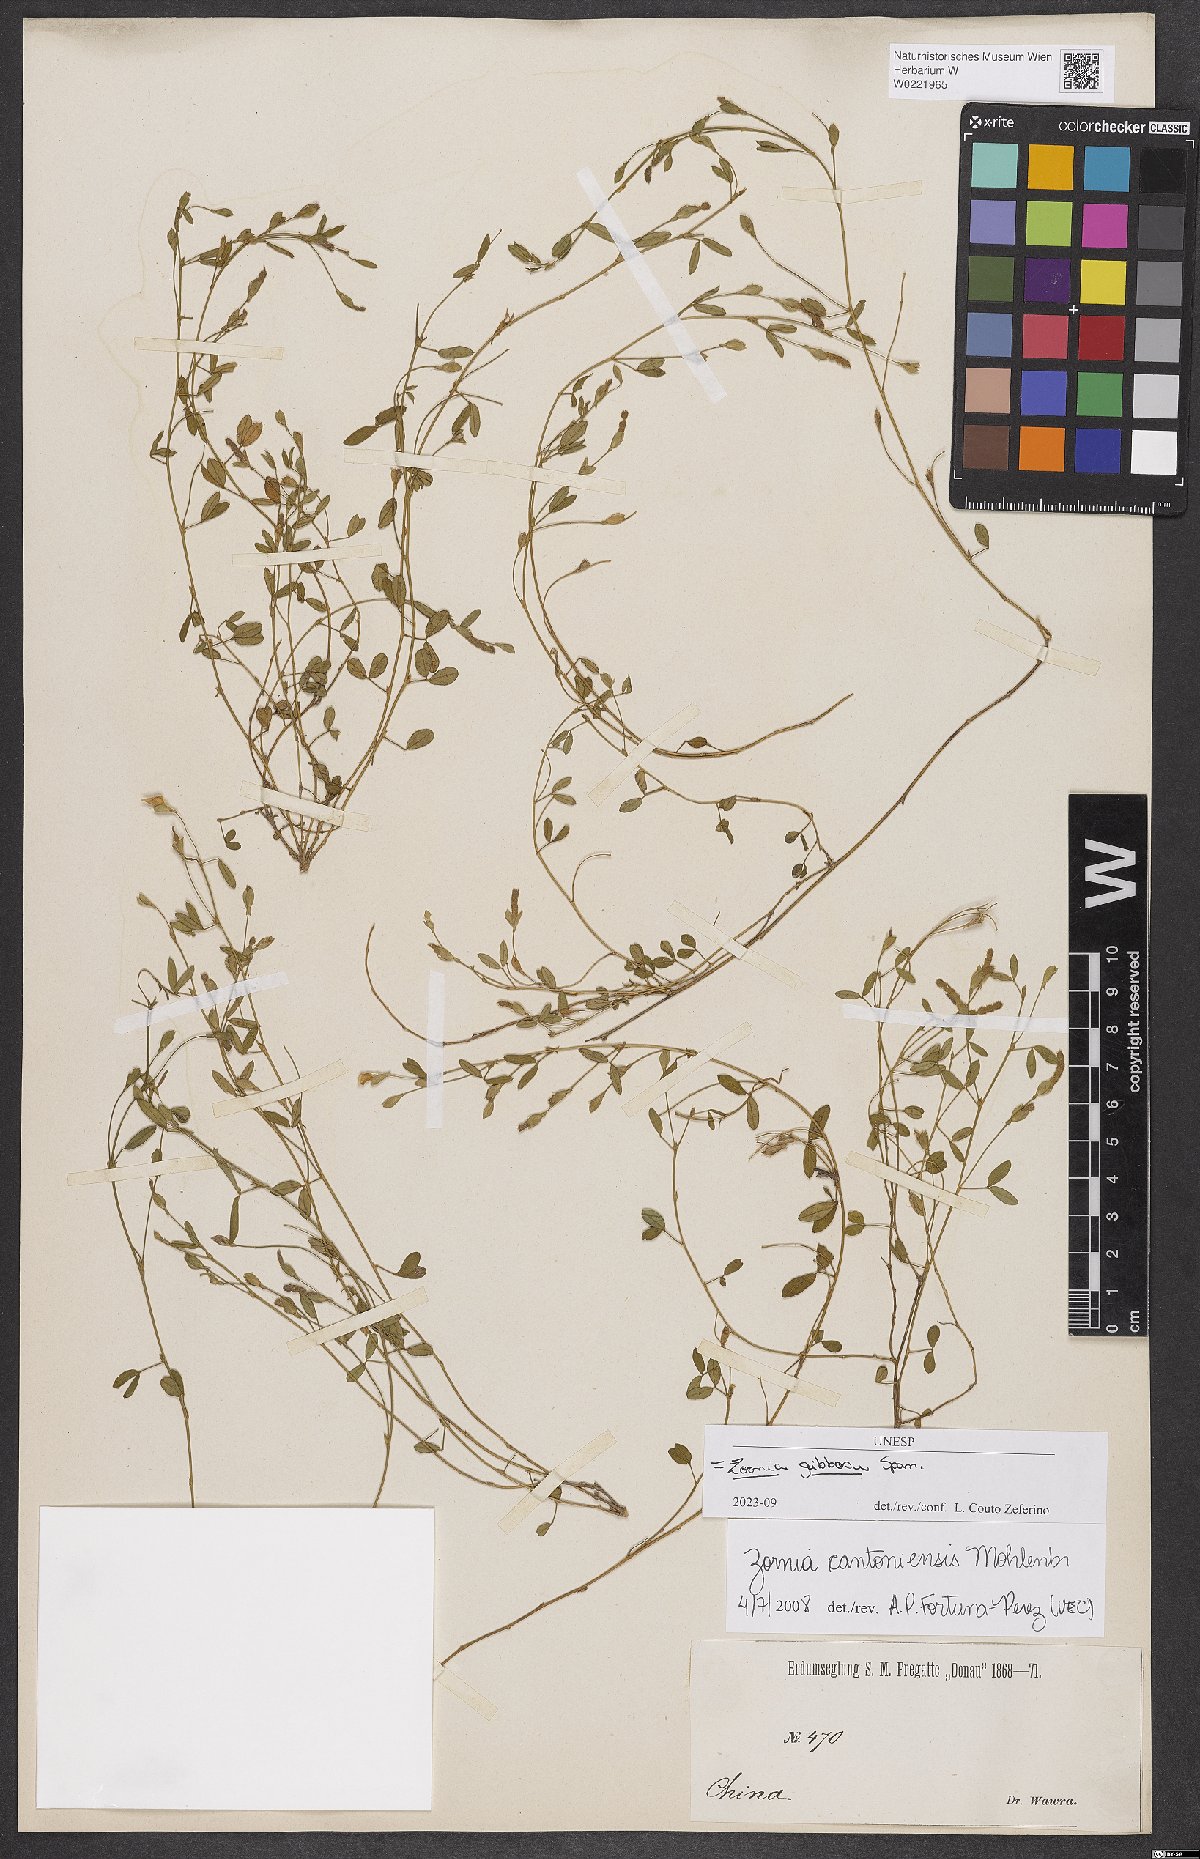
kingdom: Plantae
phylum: Tracheophyta
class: Magnoliopsida
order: Fabales
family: Fabaceae
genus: Zornia
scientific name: Zornia gibbosa
